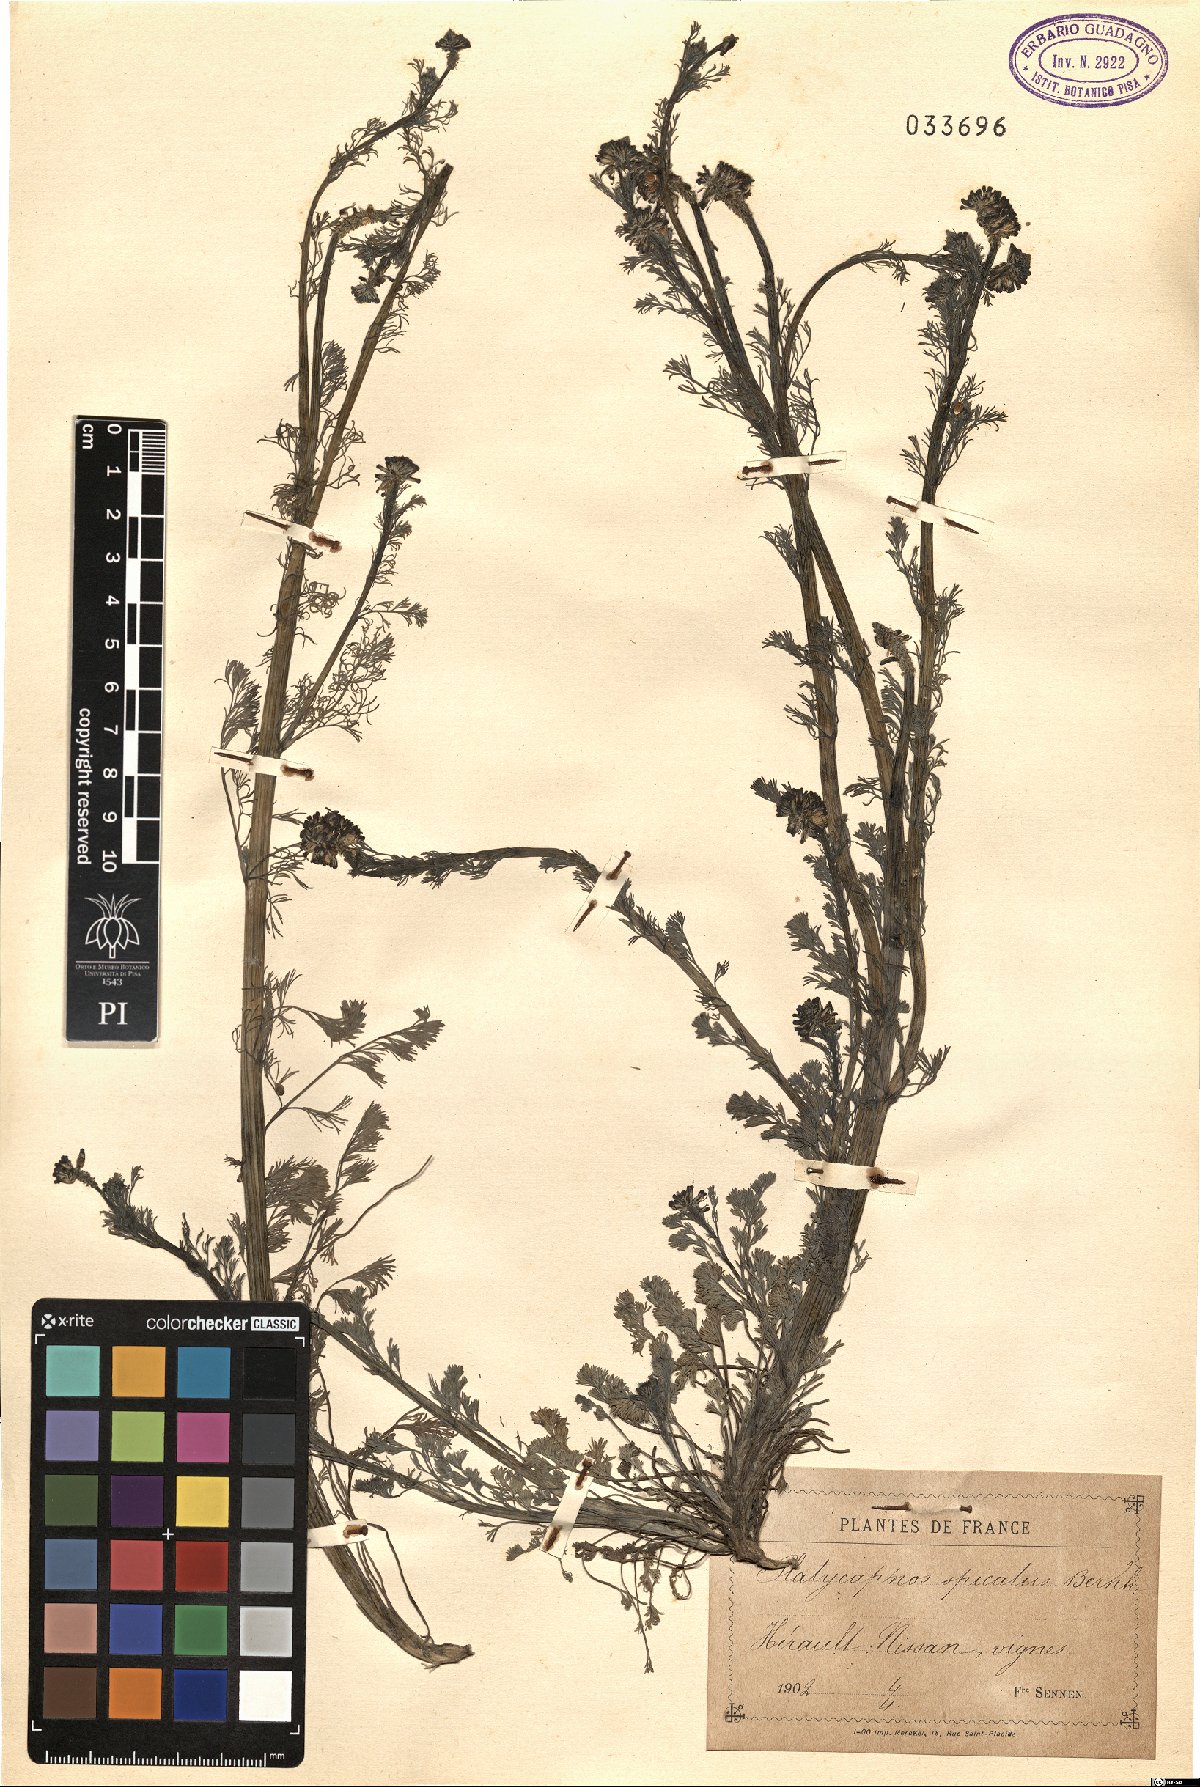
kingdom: Plantae
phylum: Tracheophyta
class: Magnoliopsida
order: Ranunculales
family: Papaveraceae
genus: Platycapnos
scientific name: Platycapnos spicata
